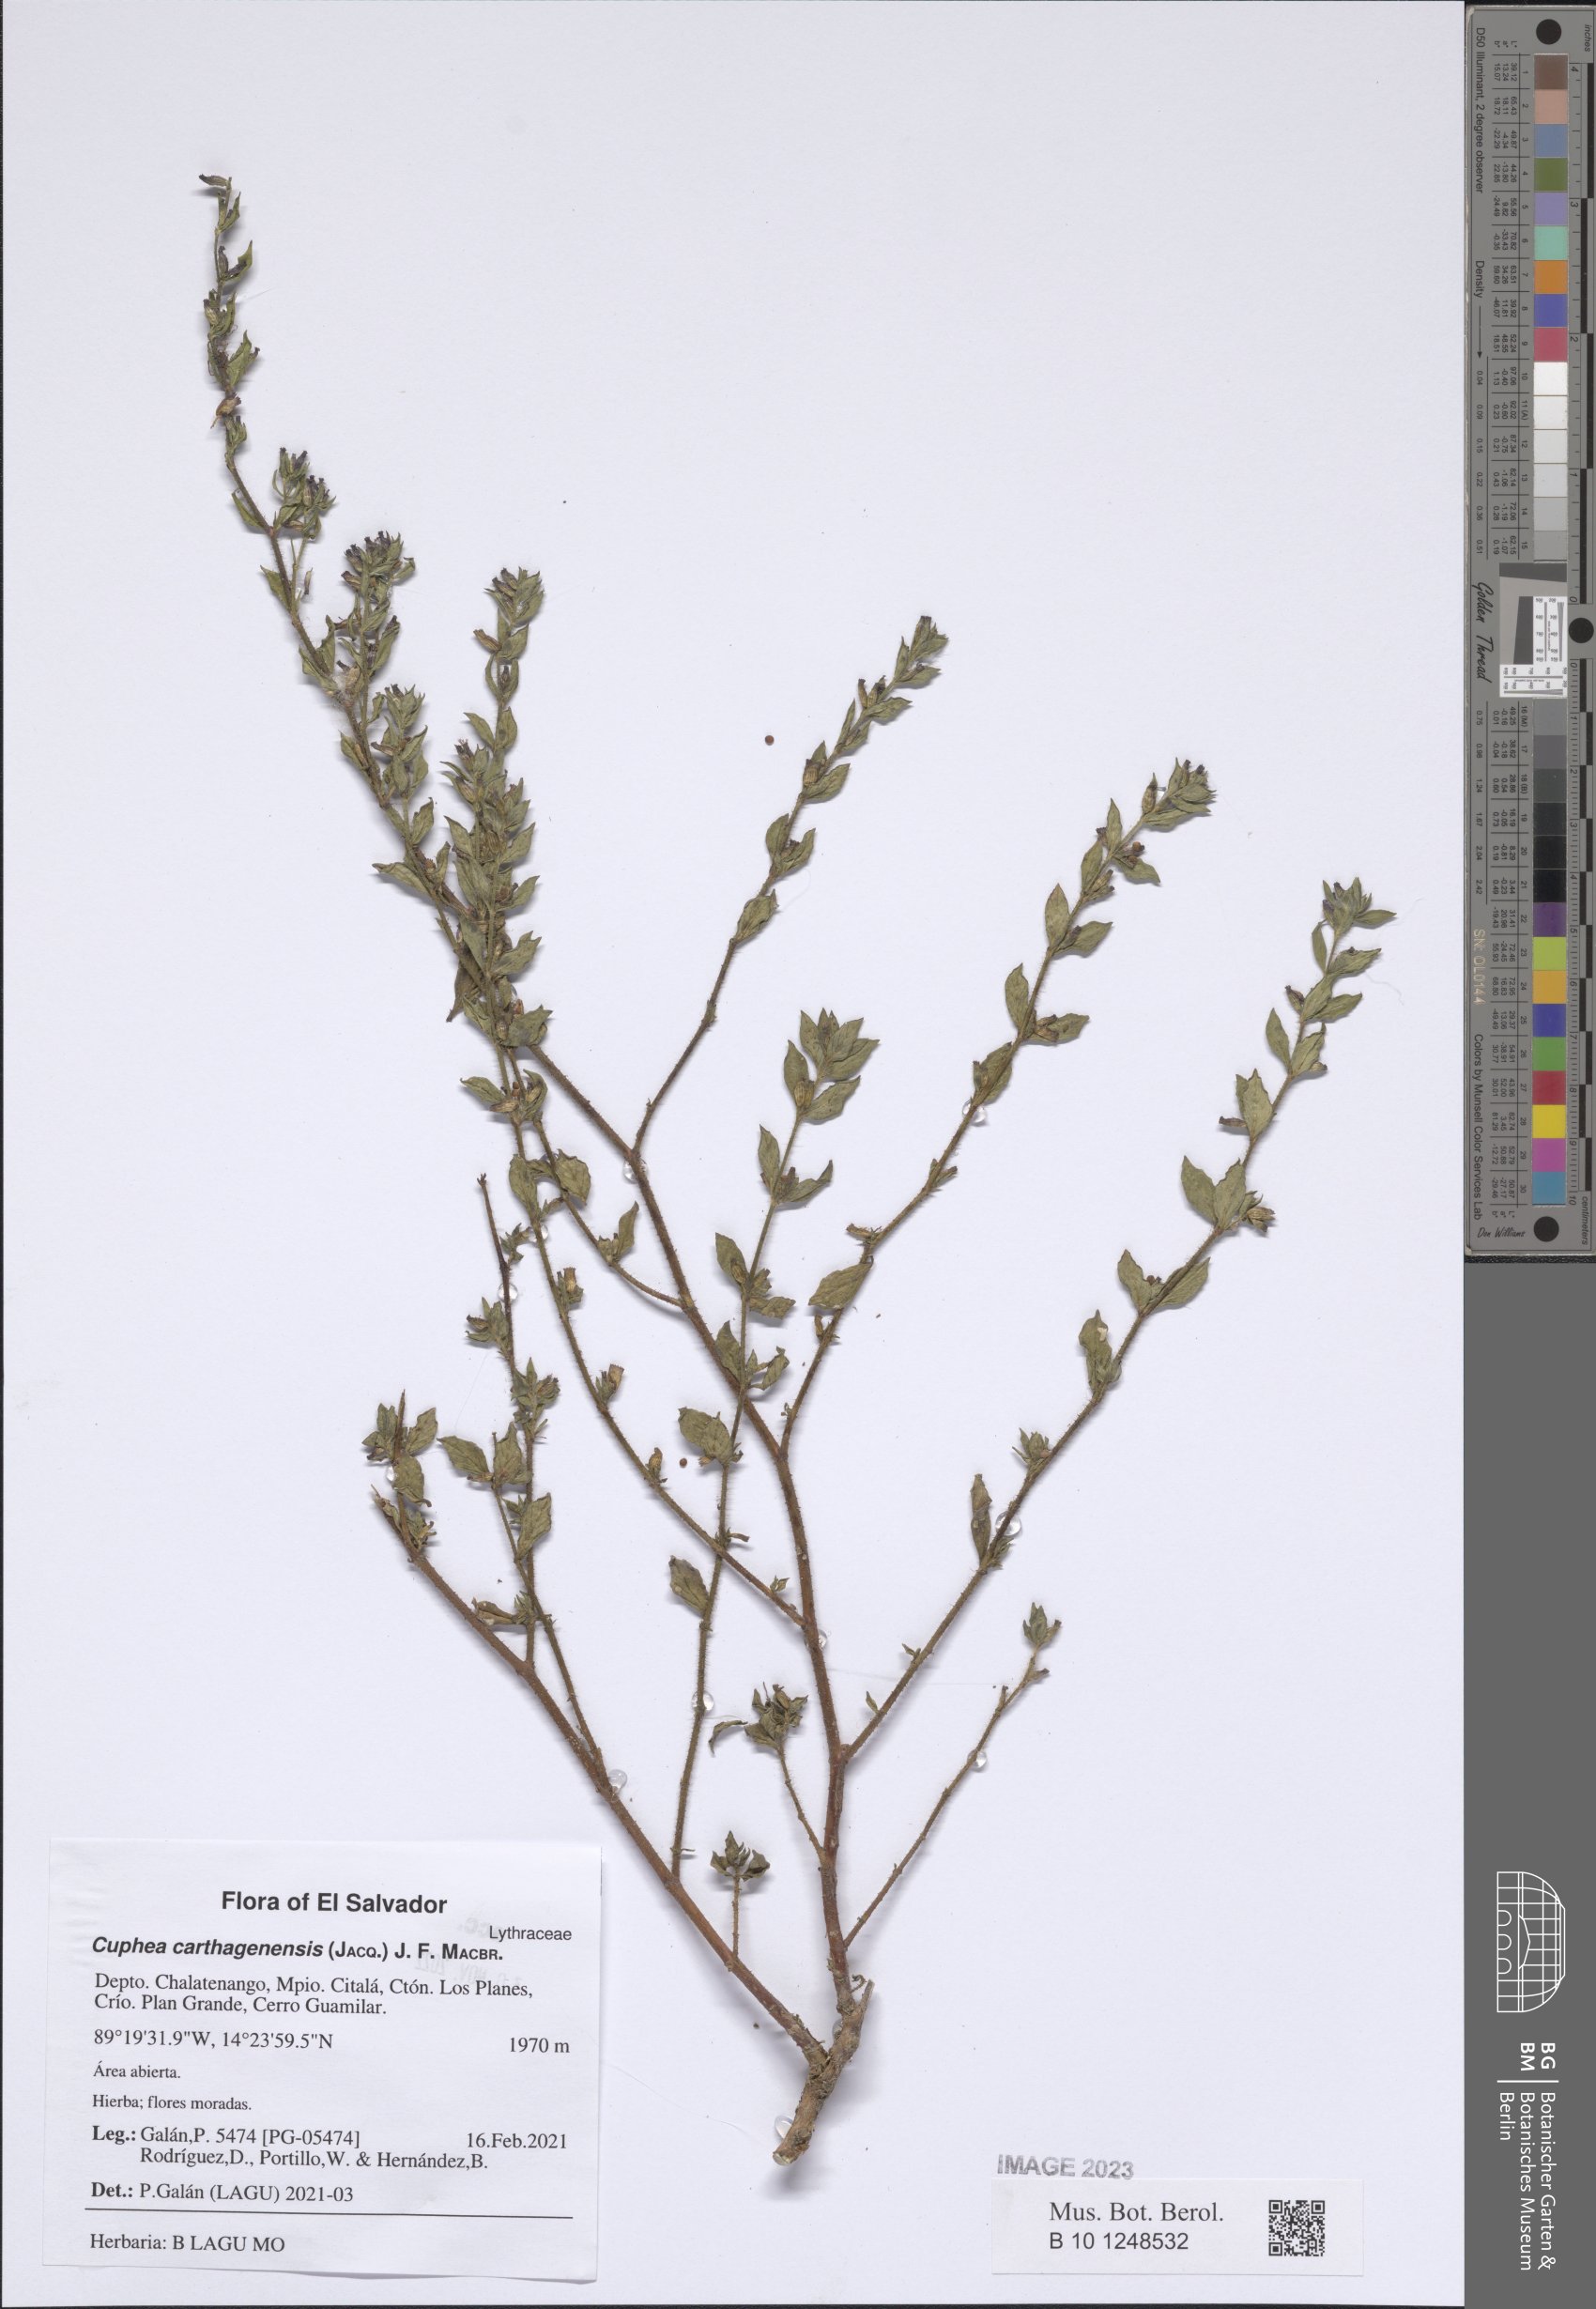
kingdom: Plantae
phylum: Tracheophyta
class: Magnoliopsida
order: Myrtales
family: Lythraceae
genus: Cuphea
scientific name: Cuphea carthagenensis
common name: Colombian waxweed
